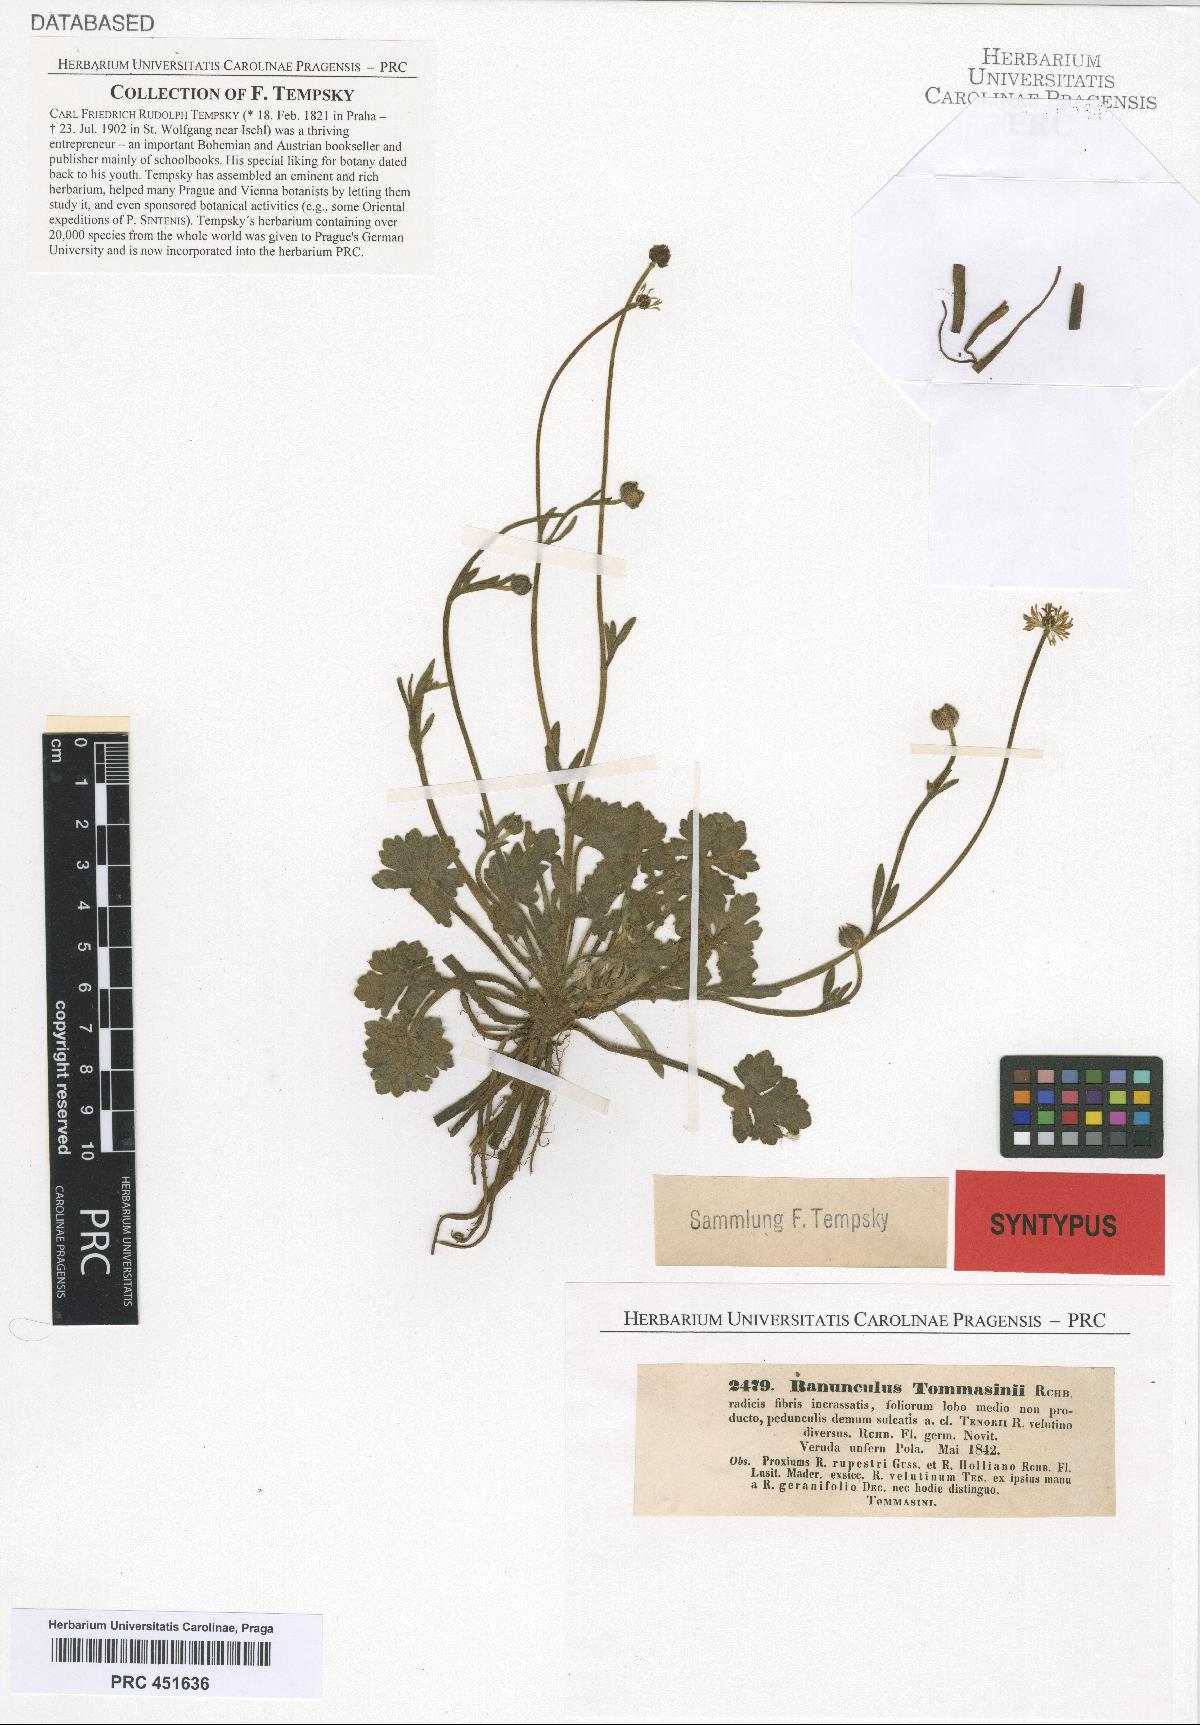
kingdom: Plantae
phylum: Tracheophyta
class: Magnoliopsida
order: Ranunculales
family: Ranunculaceae
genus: Ranunculus
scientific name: Ranunculus neapolitanus
